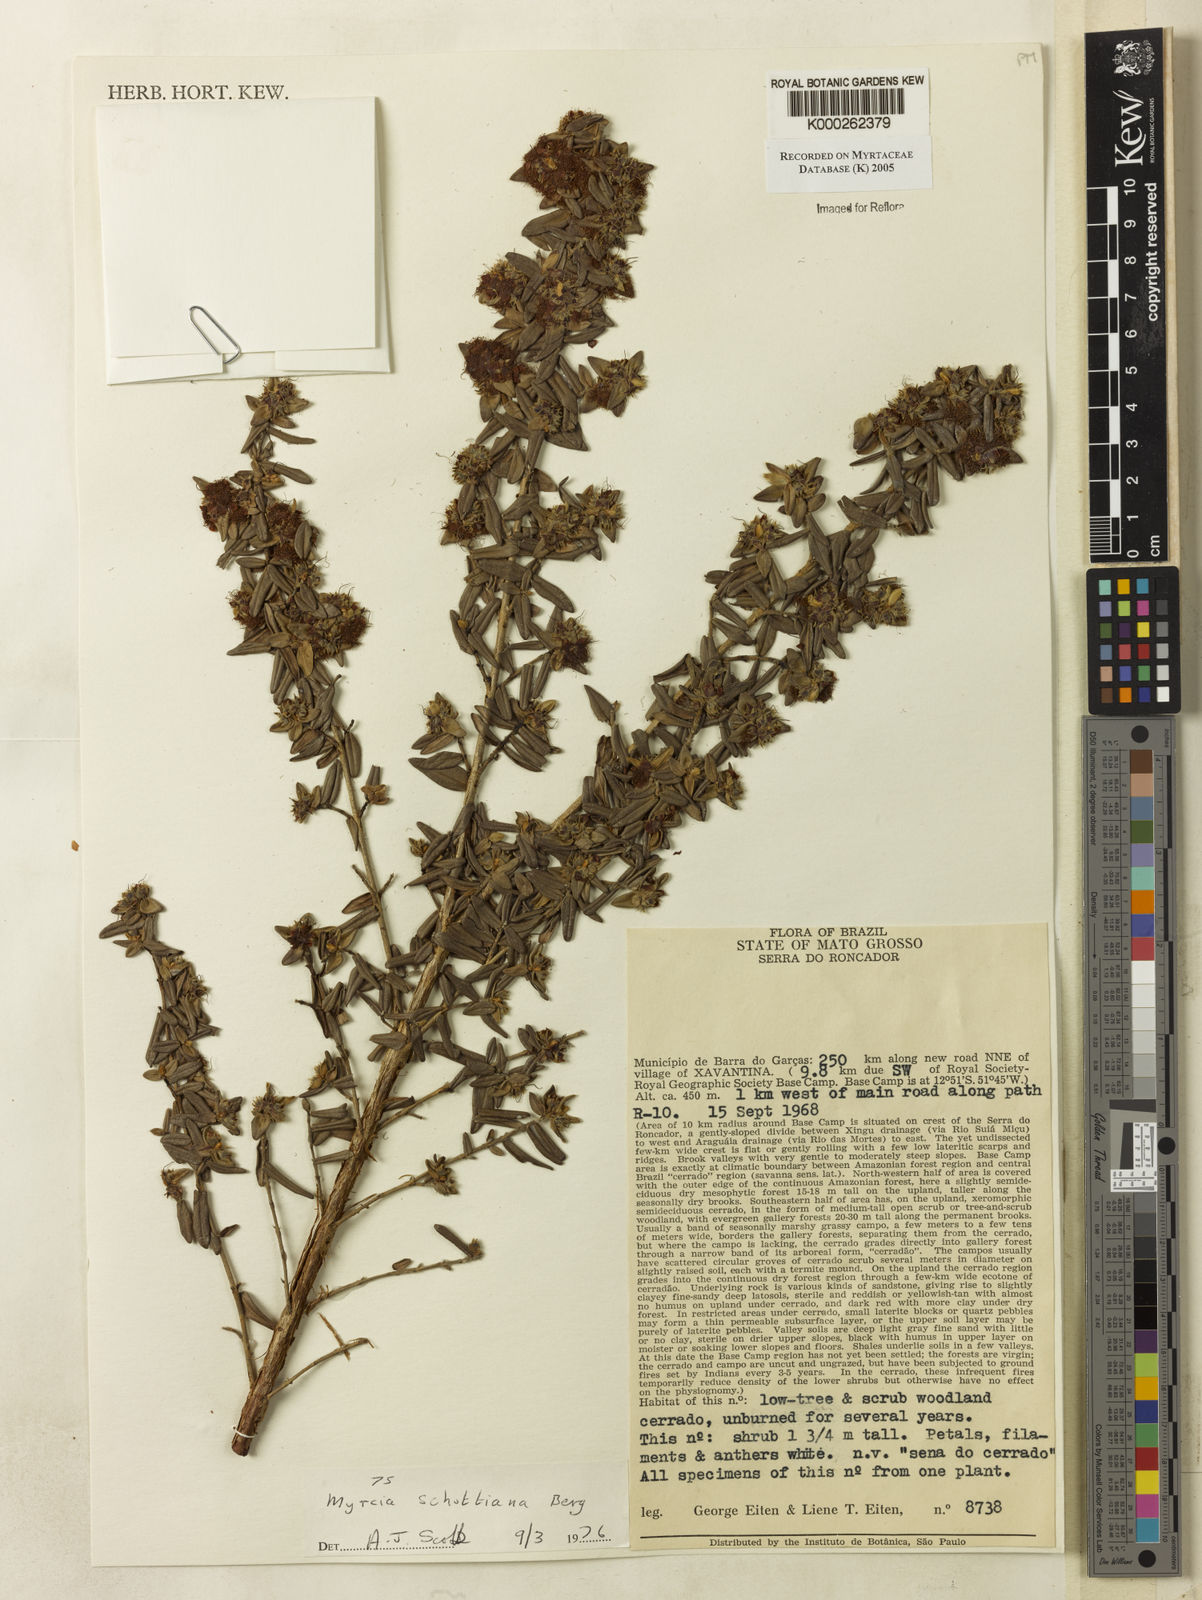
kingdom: Plantae
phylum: Tracheophyta
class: Magnoliopsida
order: Myrtales
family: Myrtaceae
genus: Myrcia
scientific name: Myrcia schottiana
